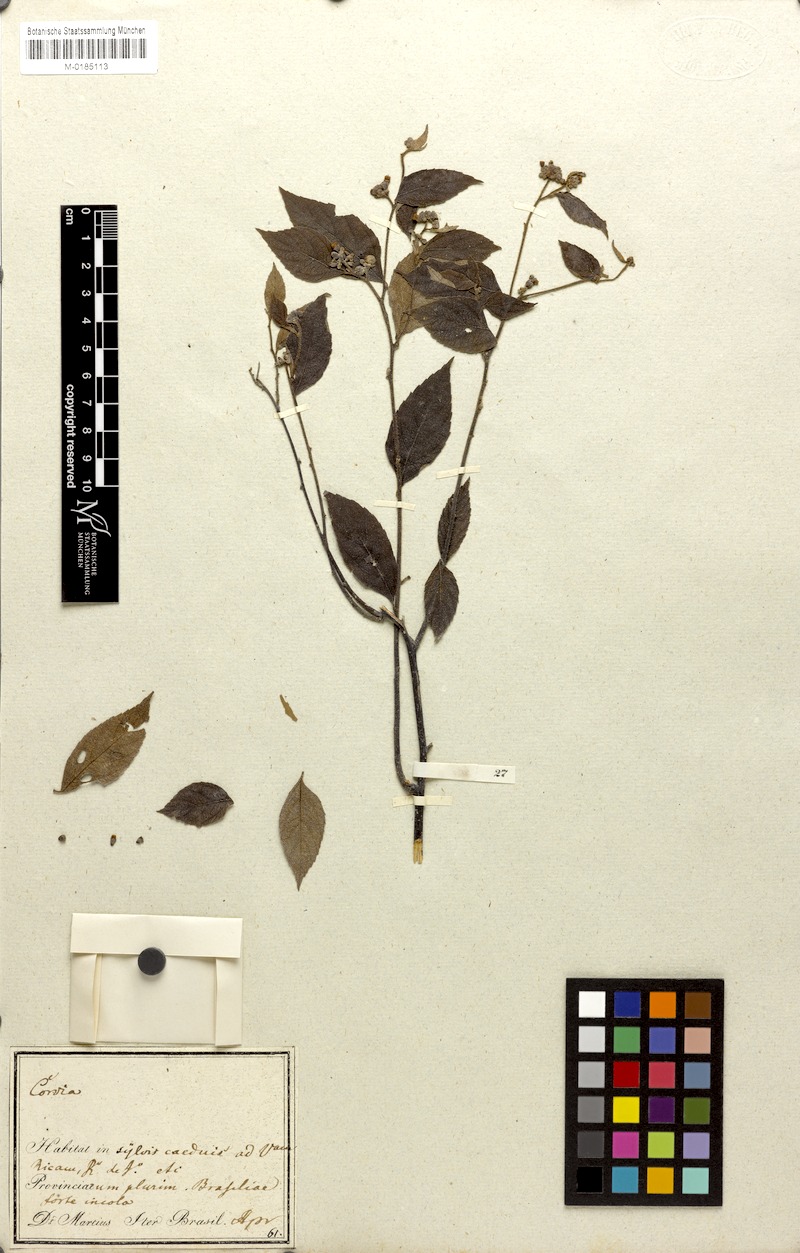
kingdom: Plantae
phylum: Tracheophyta
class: Magnoliopsida
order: Boraginales
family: Cordiaceae
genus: Varronia
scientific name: Varronia polycephala
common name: Black-sage
